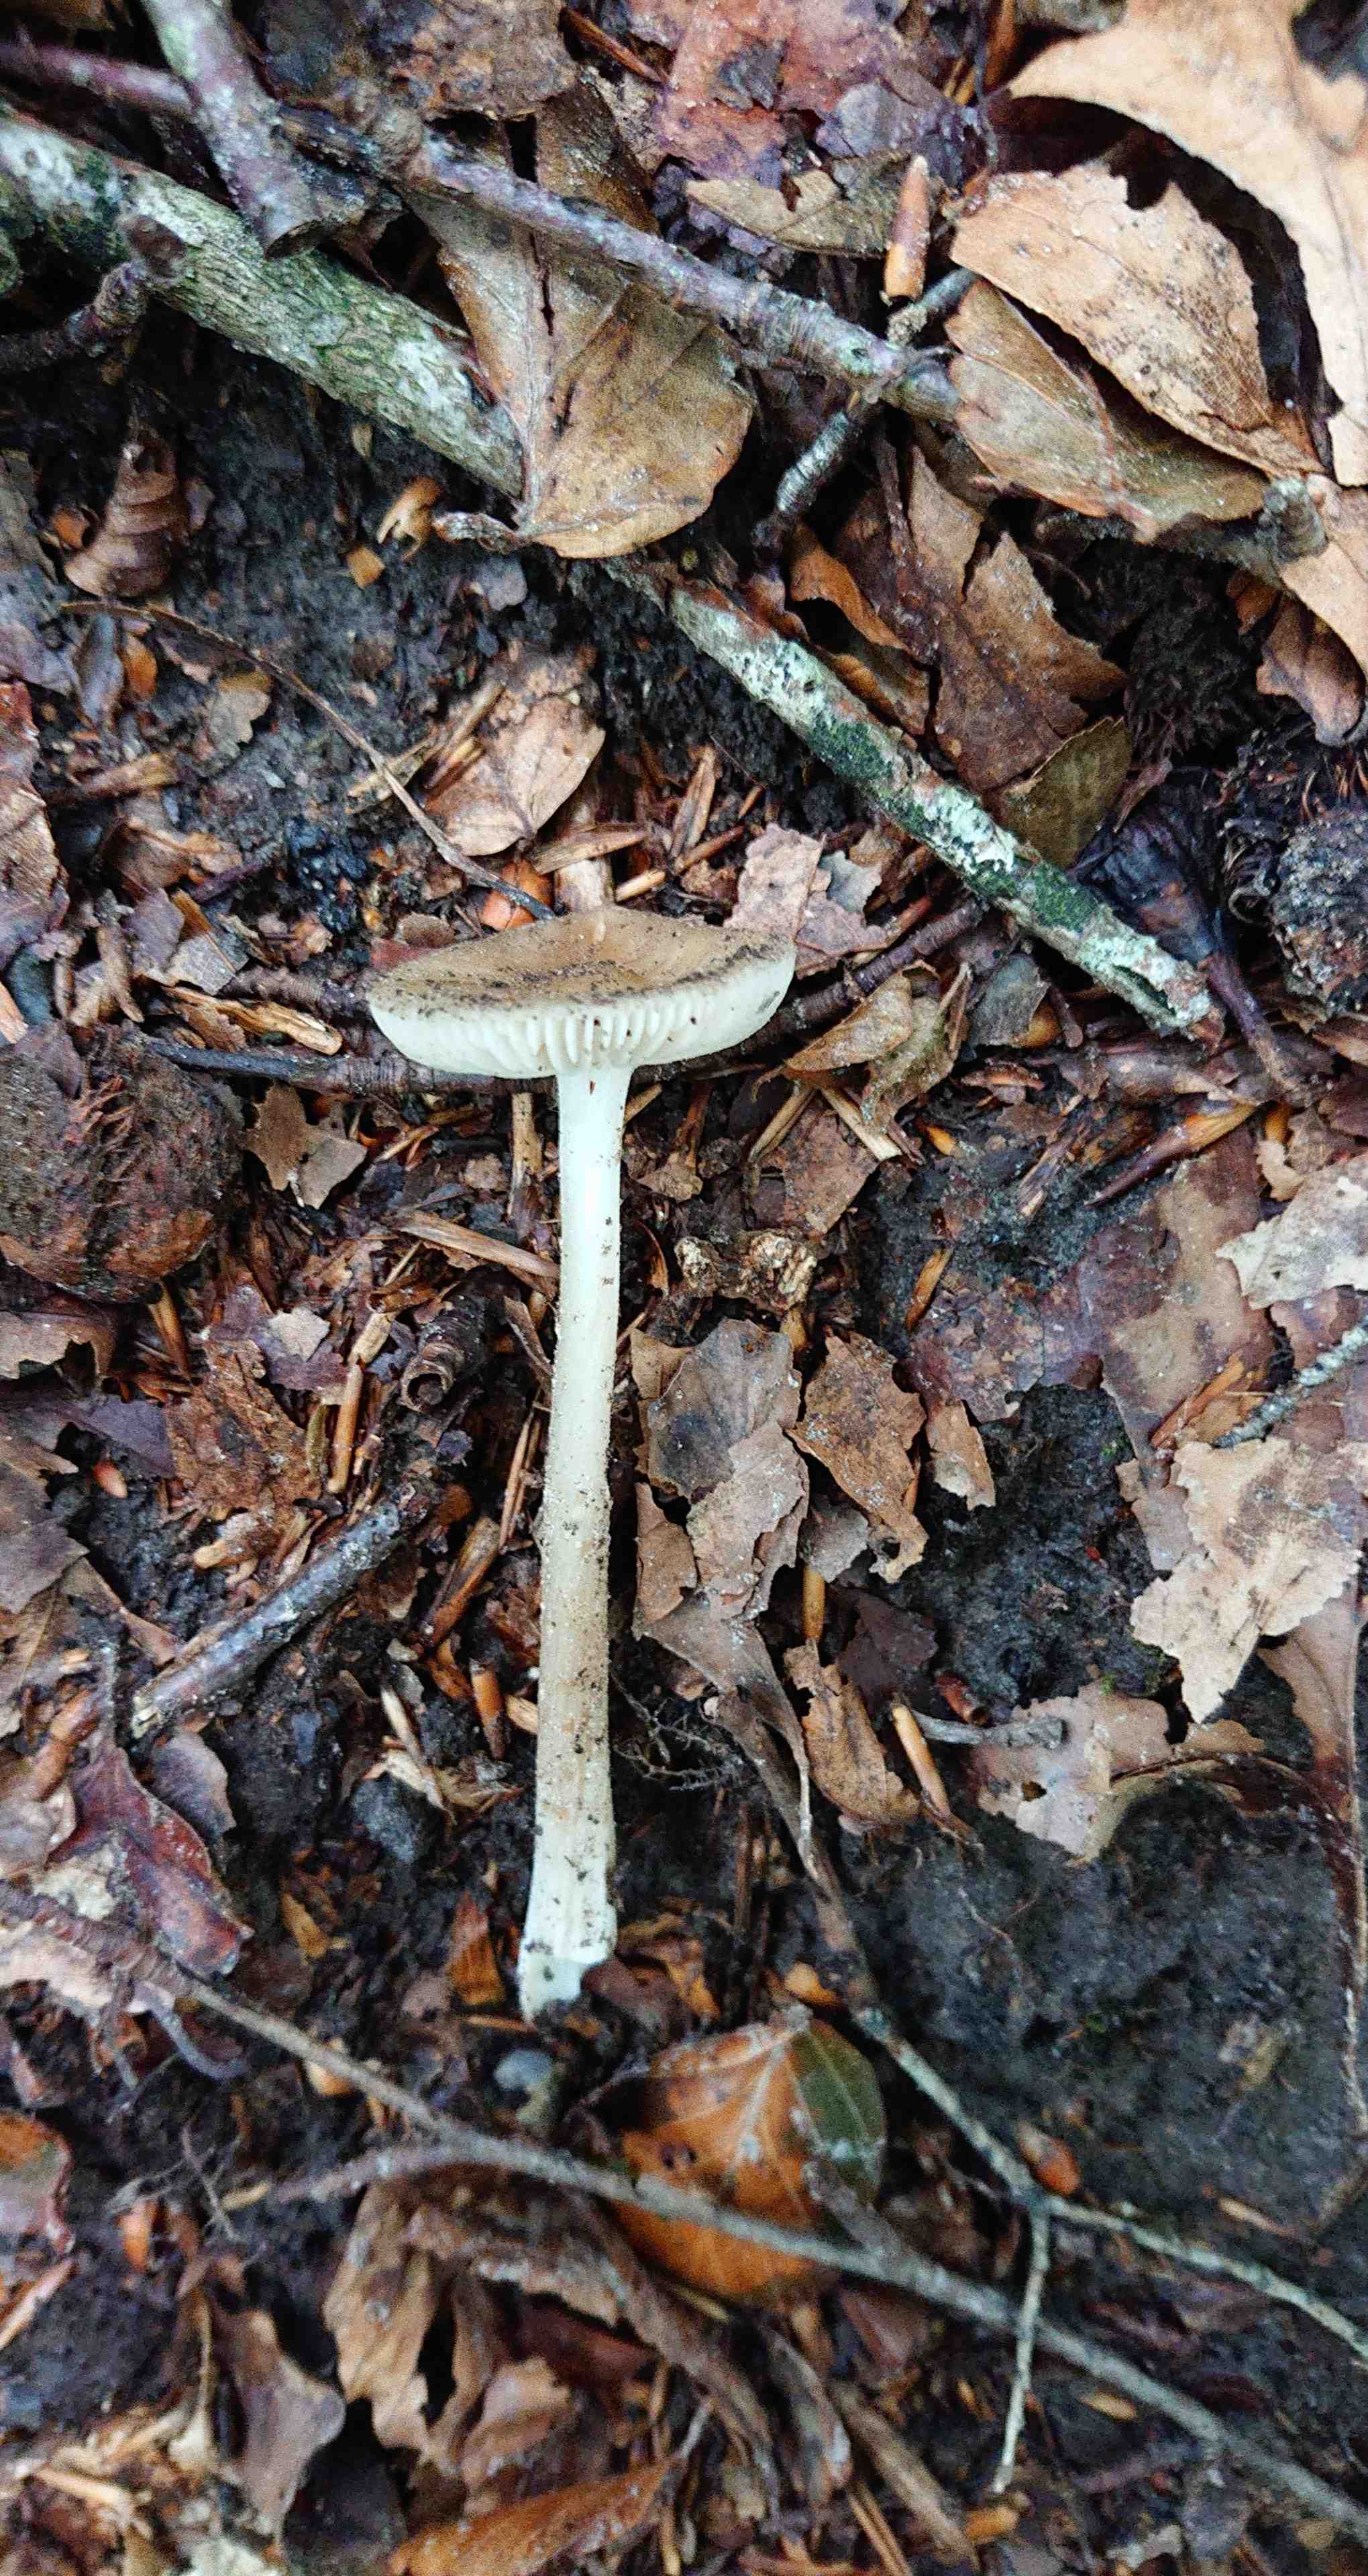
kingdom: Fungi
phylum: Basidiomycota
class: Agaricomycetes
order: Agaricales
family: Physalacriaceae
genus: Hymenopellis
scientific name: Hymenopellis radicata
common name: almindelig pælerodshat
